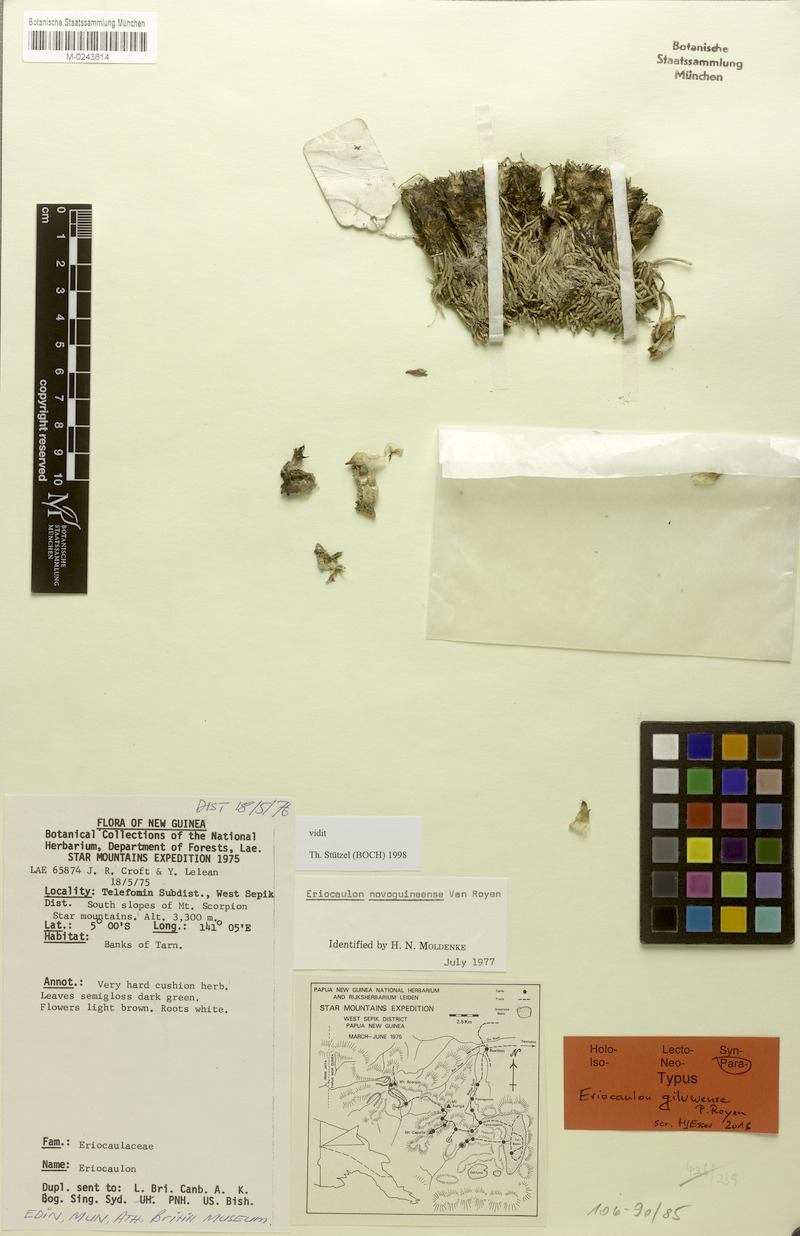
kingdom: Plantae
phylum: Tracheophyta
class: Liliopsida
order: Poales
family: Eriocaulaceae
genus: Eriocaulon
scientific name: Eriocaulon giluwense
